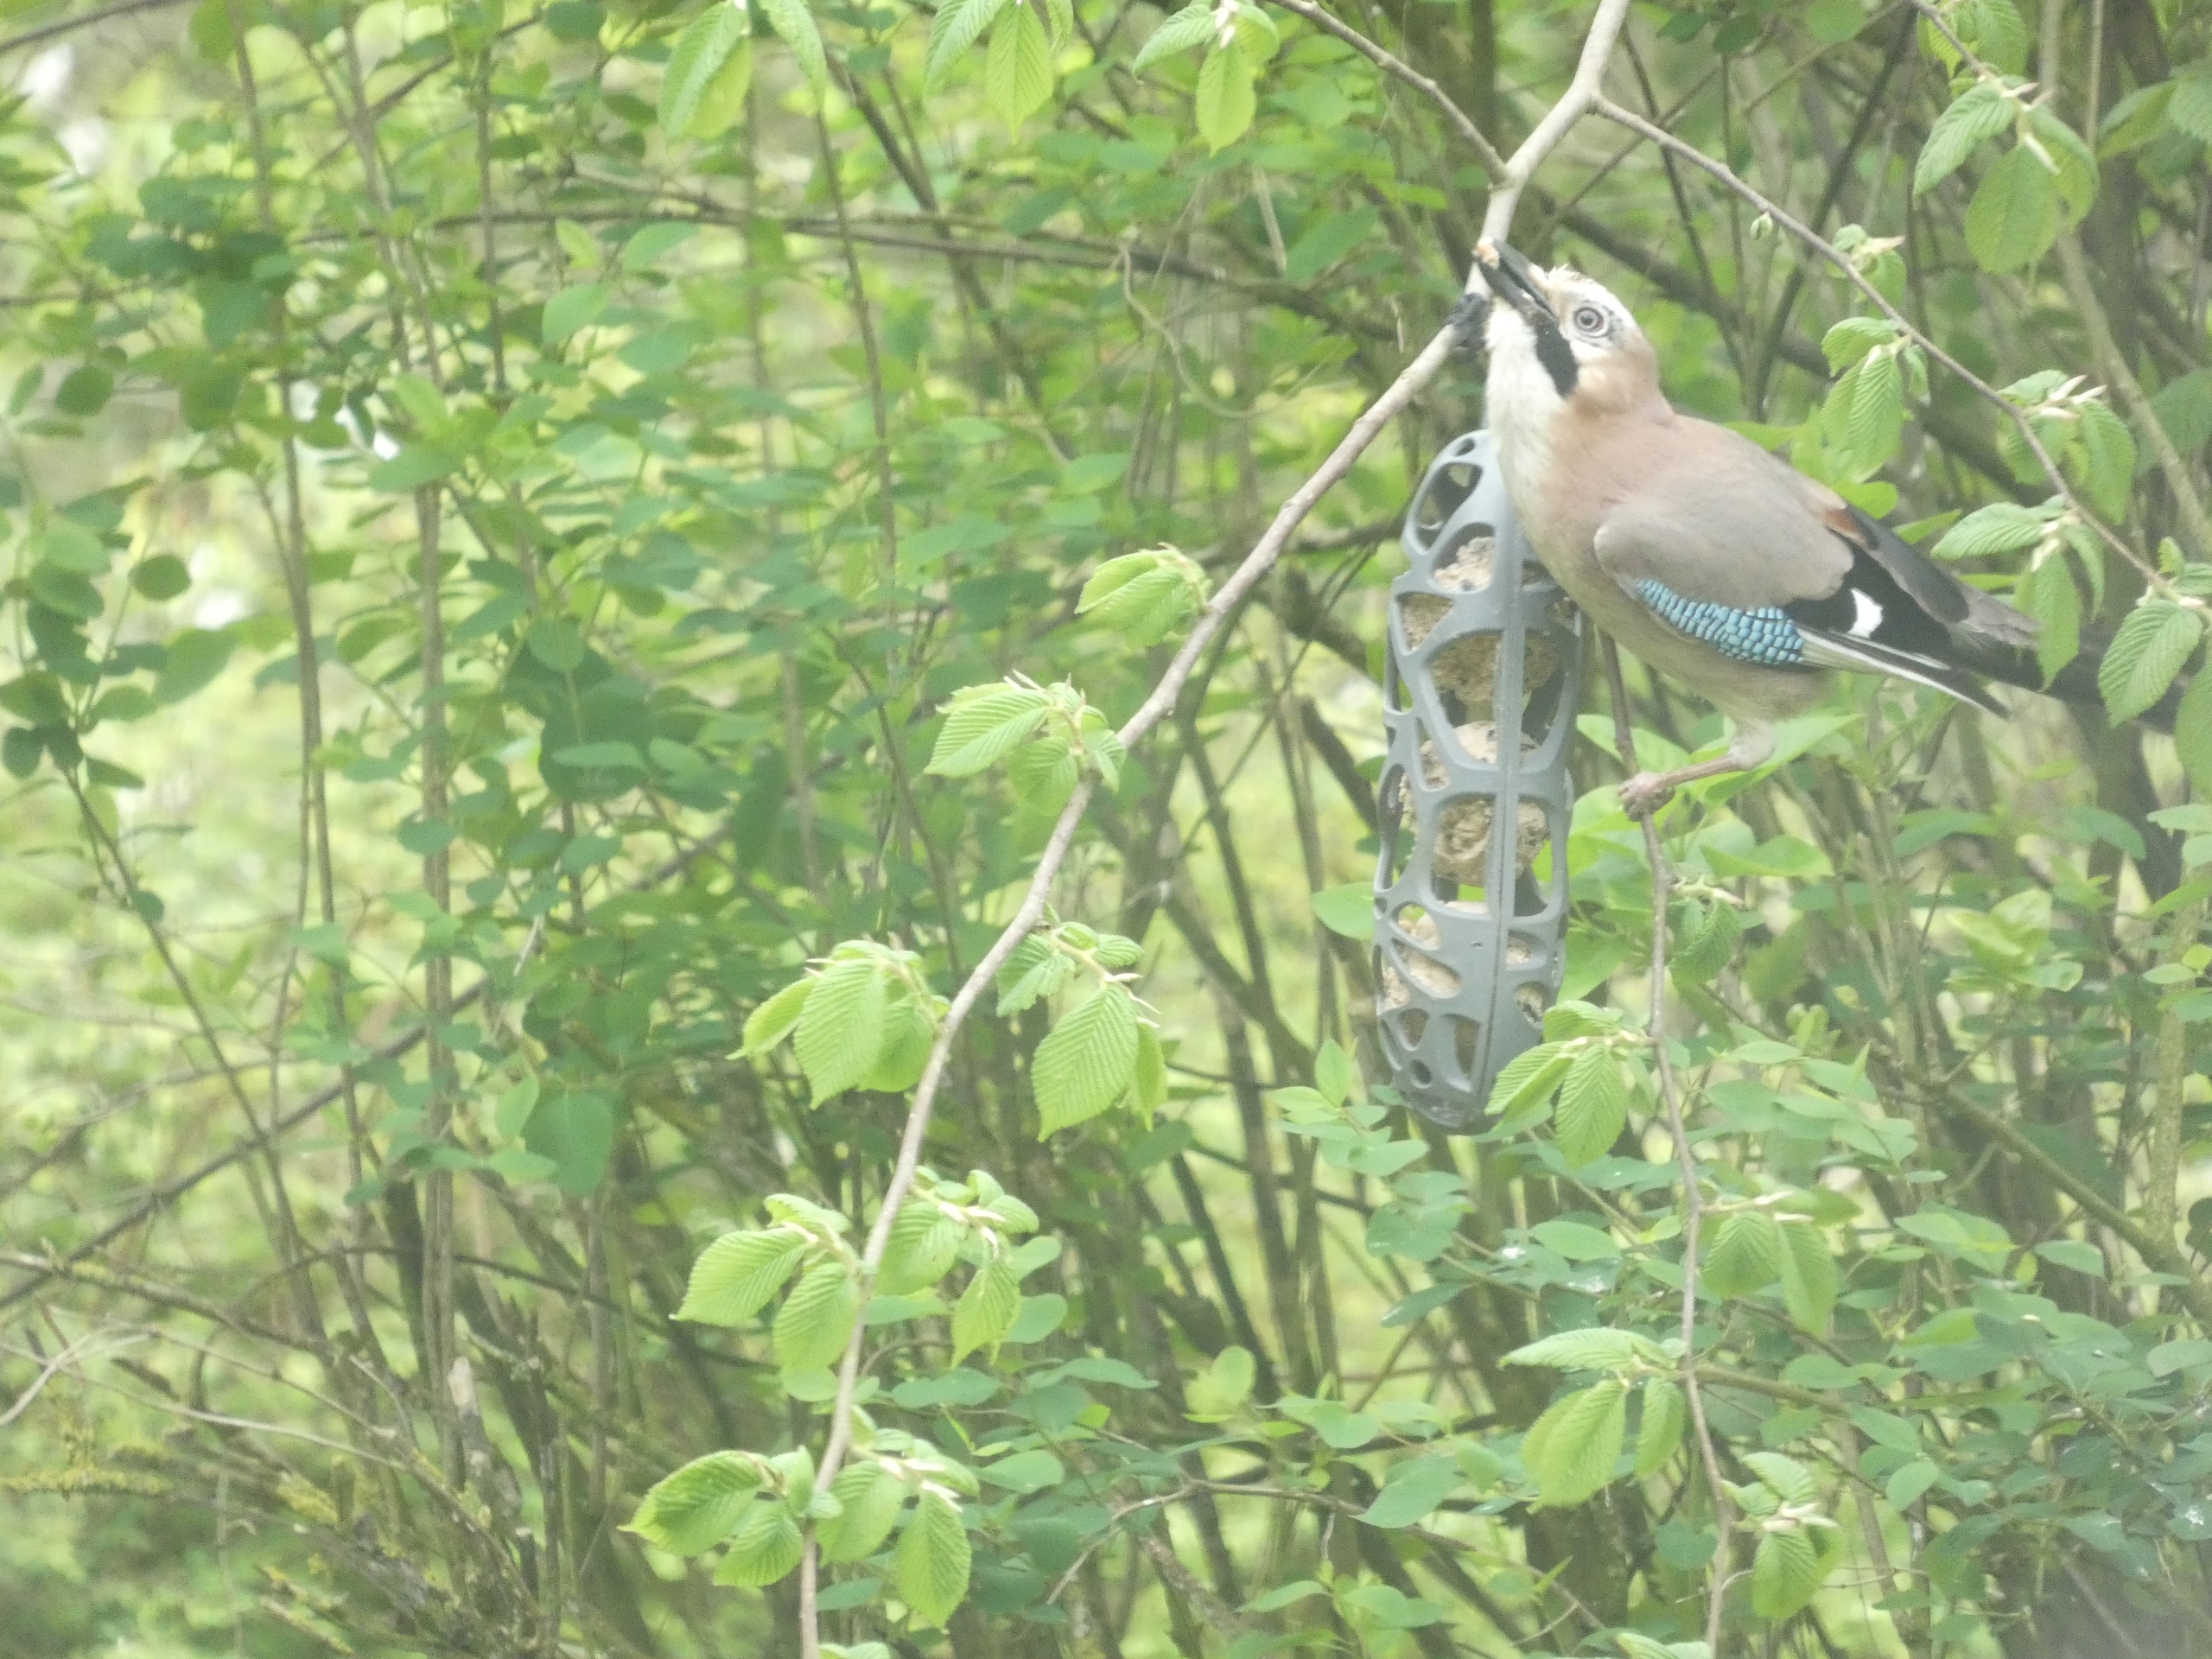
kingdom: Animalia
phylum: Chordata
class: Aves
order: Passeriformes
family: Corvidae
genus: Garrulus
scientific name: Garrulus glandarius
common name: Skovskade
